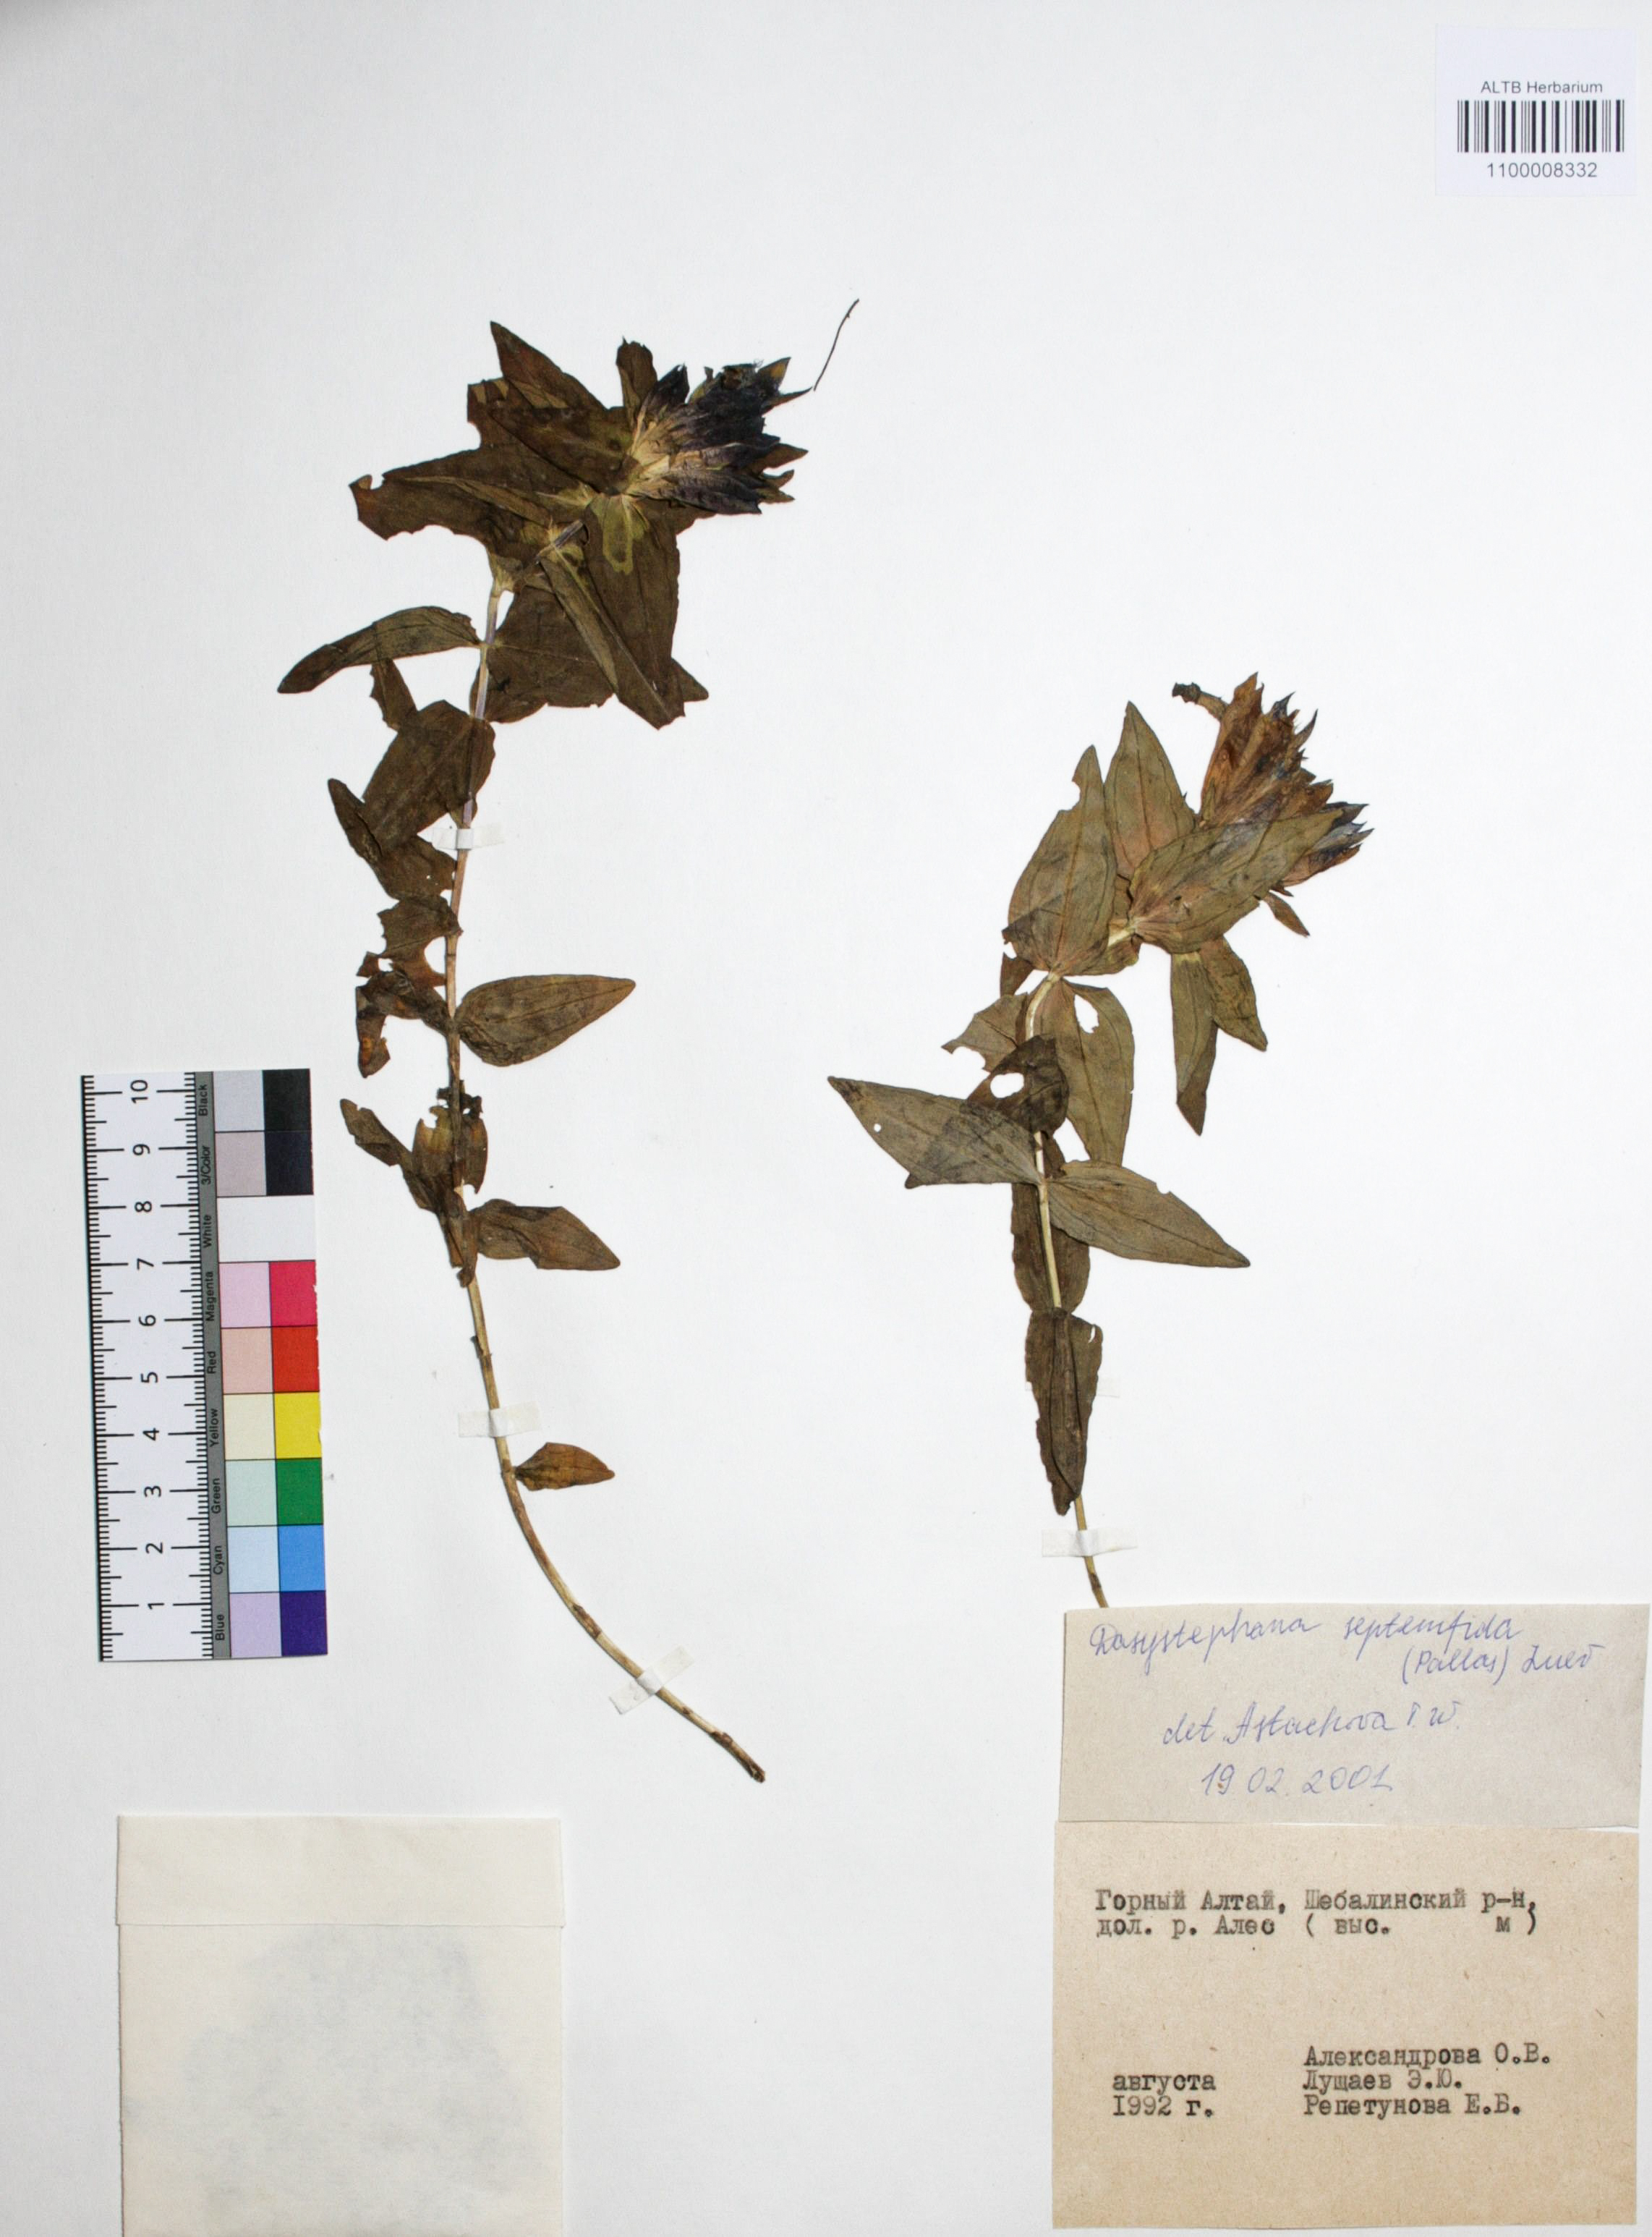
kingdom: Plantae
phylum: Tracheophyta
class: Magnoliopsida
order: Gentianales
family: Gentianaceae
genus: Gentiana
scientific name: Gentiana septemfida
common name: Crested gentian
